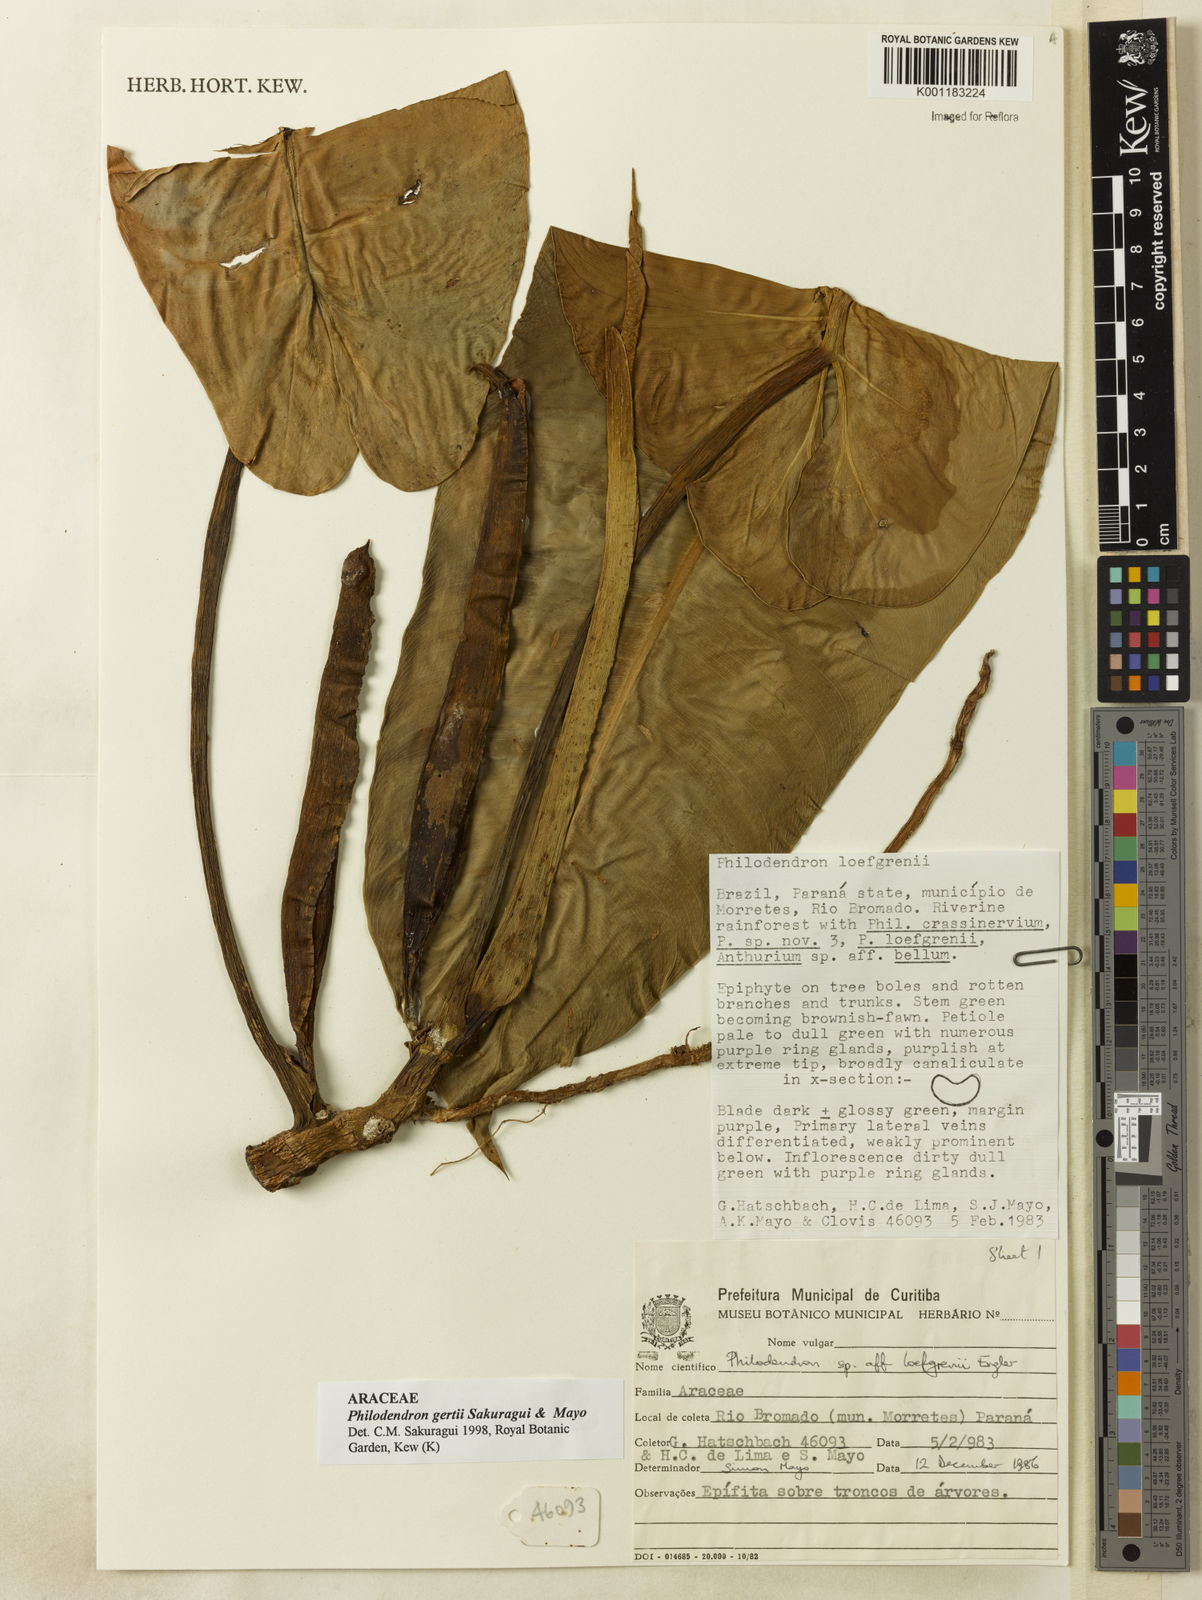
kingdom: Plantae
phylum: Tracheophyta
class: Liliopsida
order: Alismatales
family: Araceae
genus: Philodendron
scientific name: Philodendron
